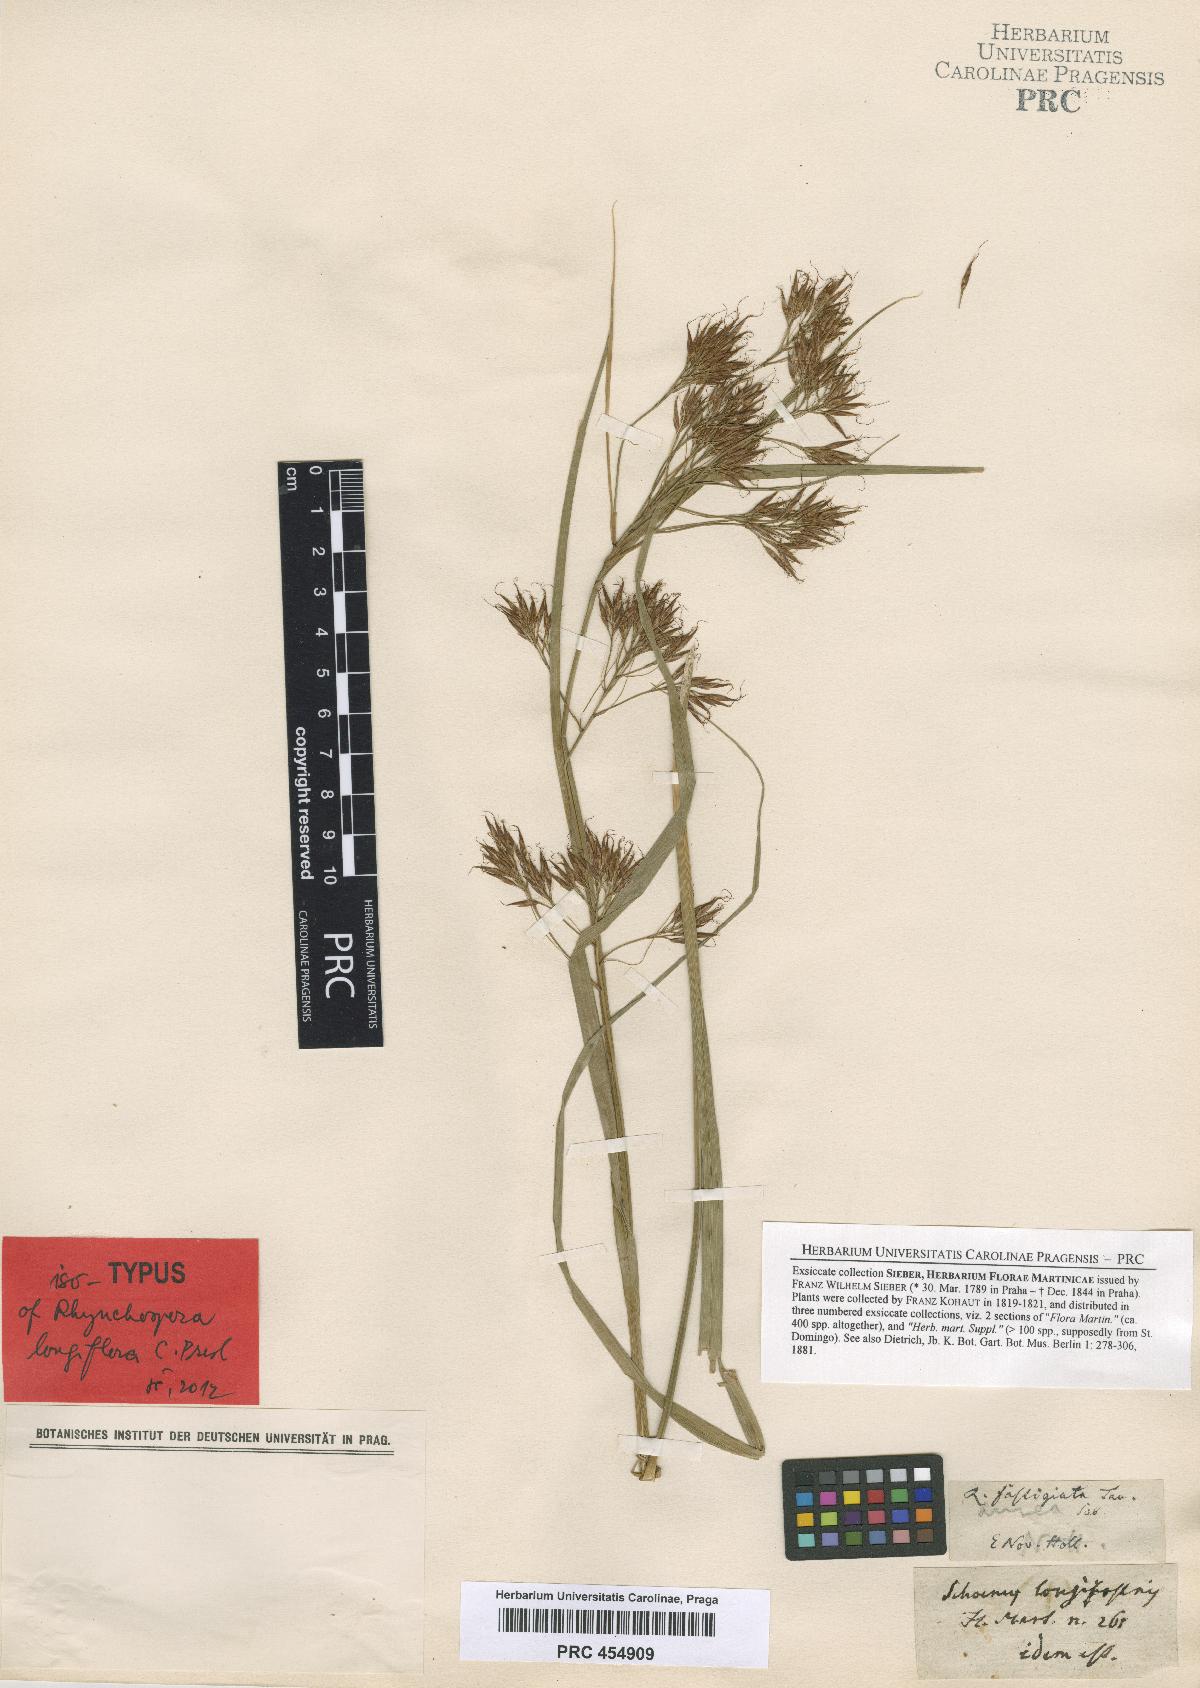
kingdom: Plantae
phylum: Tracheophyta
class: Liliopsida
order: Poales
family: Cyperaceae
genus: Rhynchospora
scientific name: Rhynchospora longiflora
